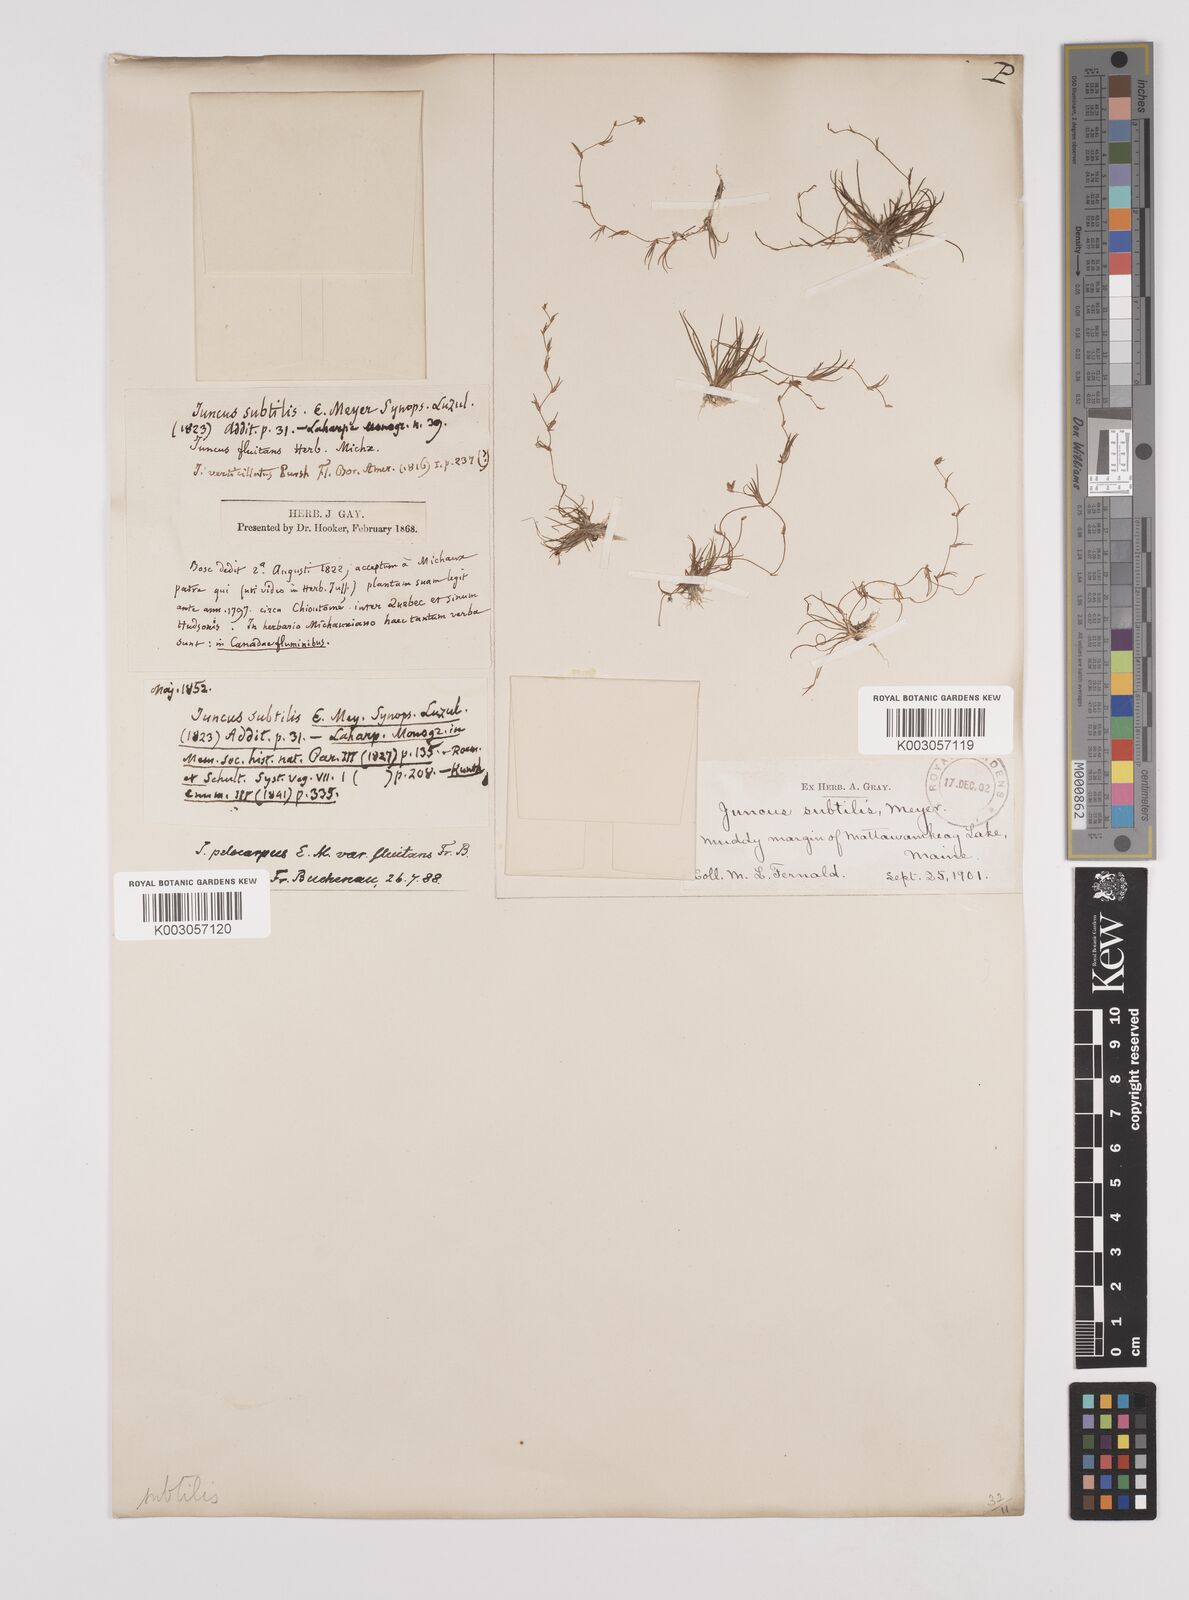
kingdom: Plantae
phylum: Tracheophyta
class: Liliopsida
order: Poales
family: Juncaceae
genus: Juncus
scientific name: Juncus subtilis
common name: Creeping rush
